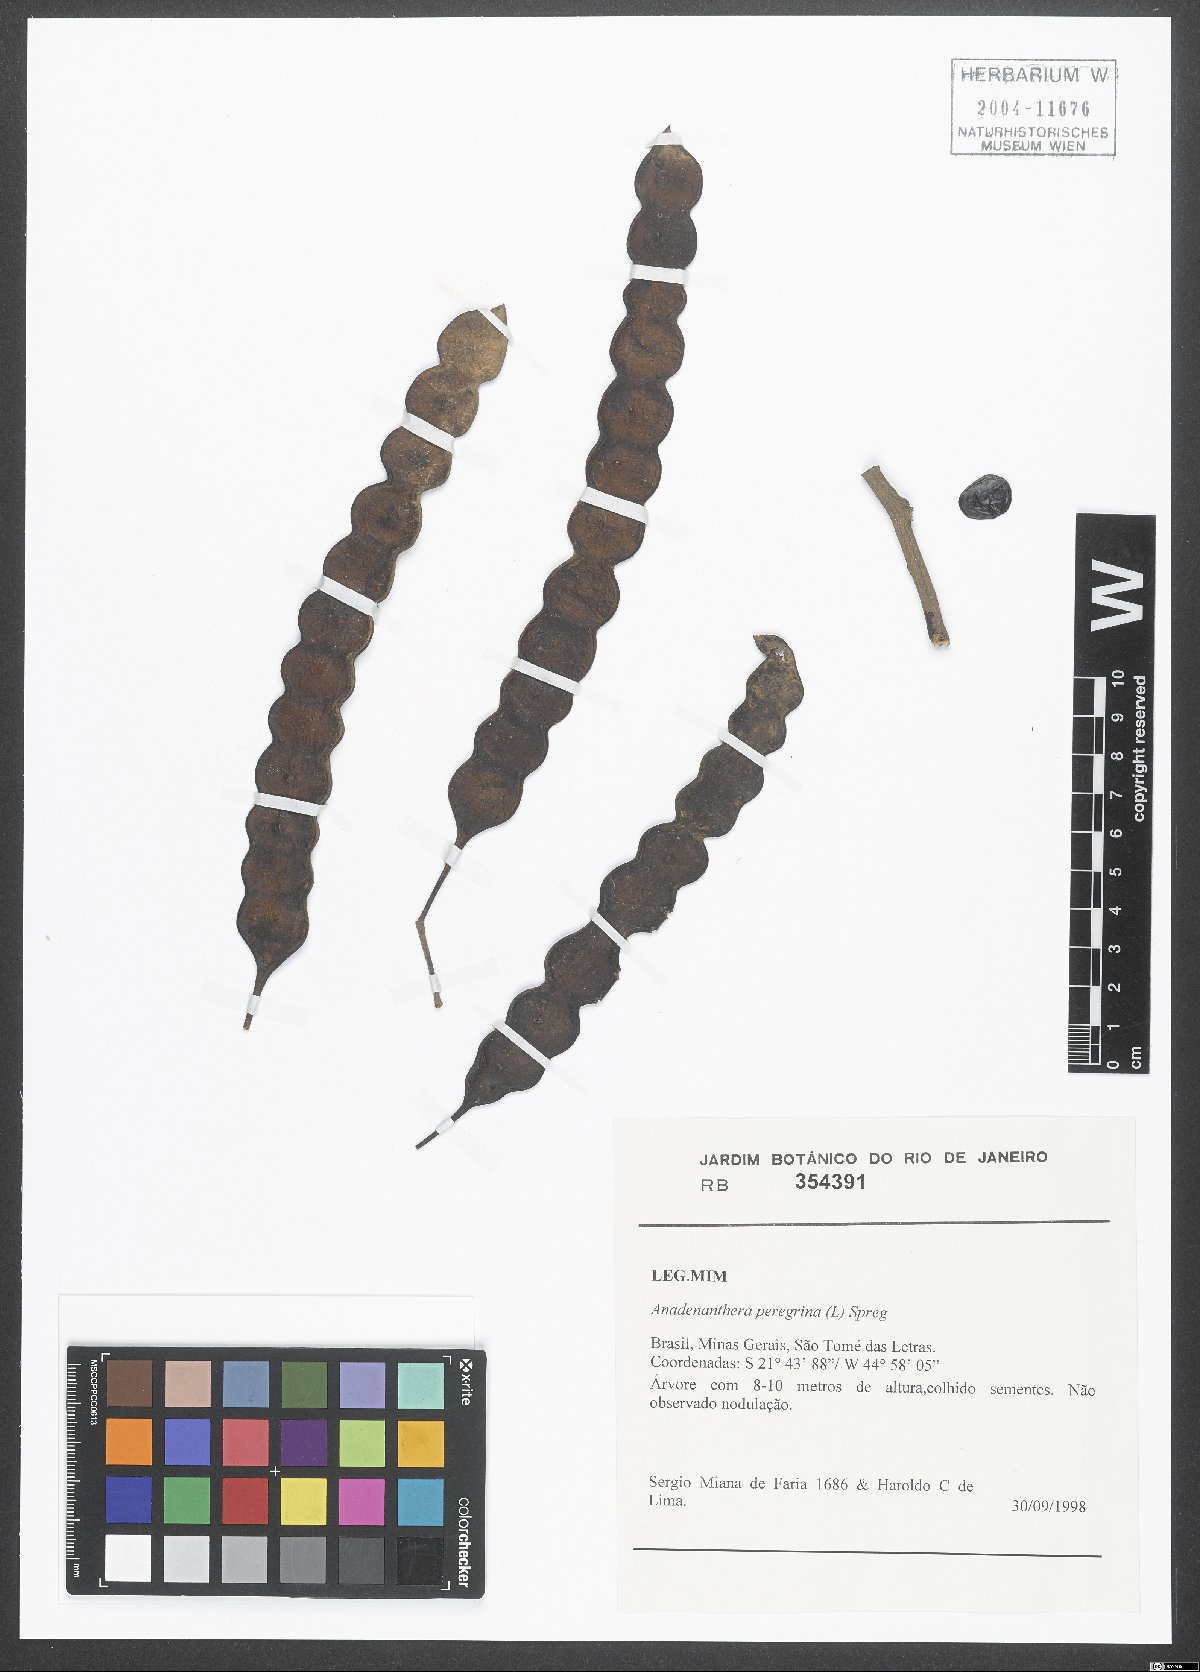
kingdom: Plantae
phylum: Tracheophyta
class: Magnoliopsida
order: Fabales
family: Fabaceae
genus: Anadenanthera
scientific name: Anadenanthera peregrina
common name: Cohoba
